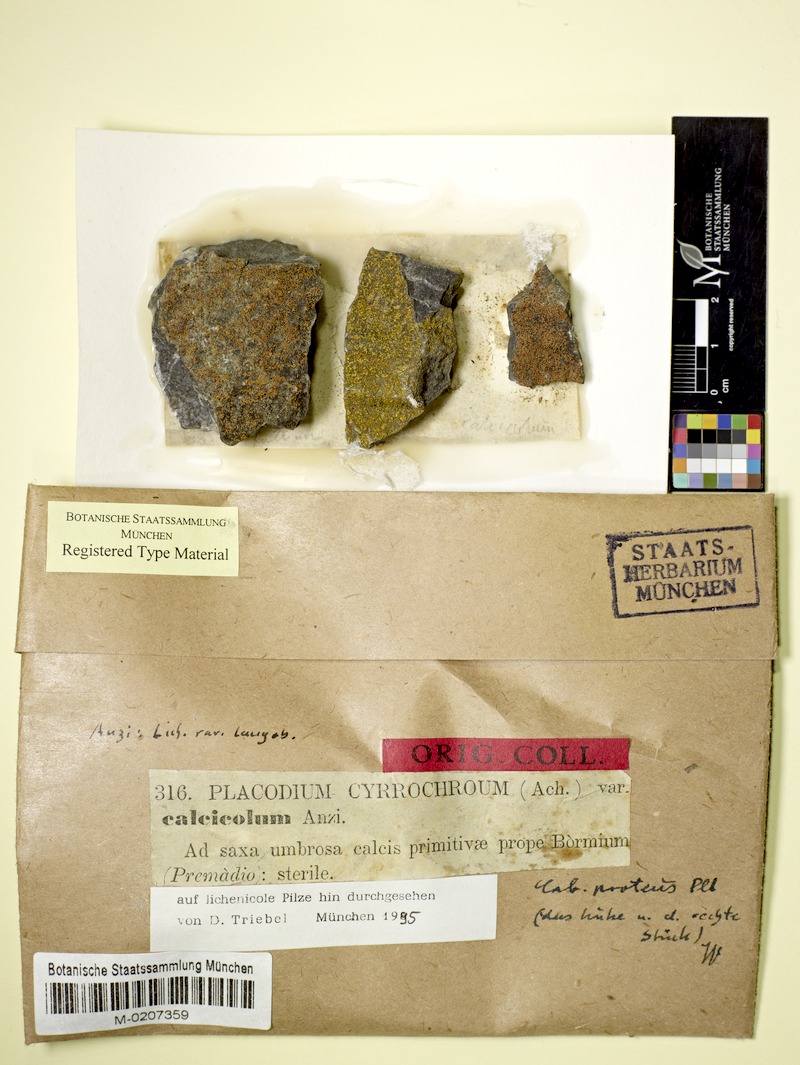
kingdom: Fungi
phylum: Ascomycota
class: Lecanoromycetes
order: Teloschistales
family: Teloschistaceae
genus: Leproplaca
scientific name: Leproplaca proteus
